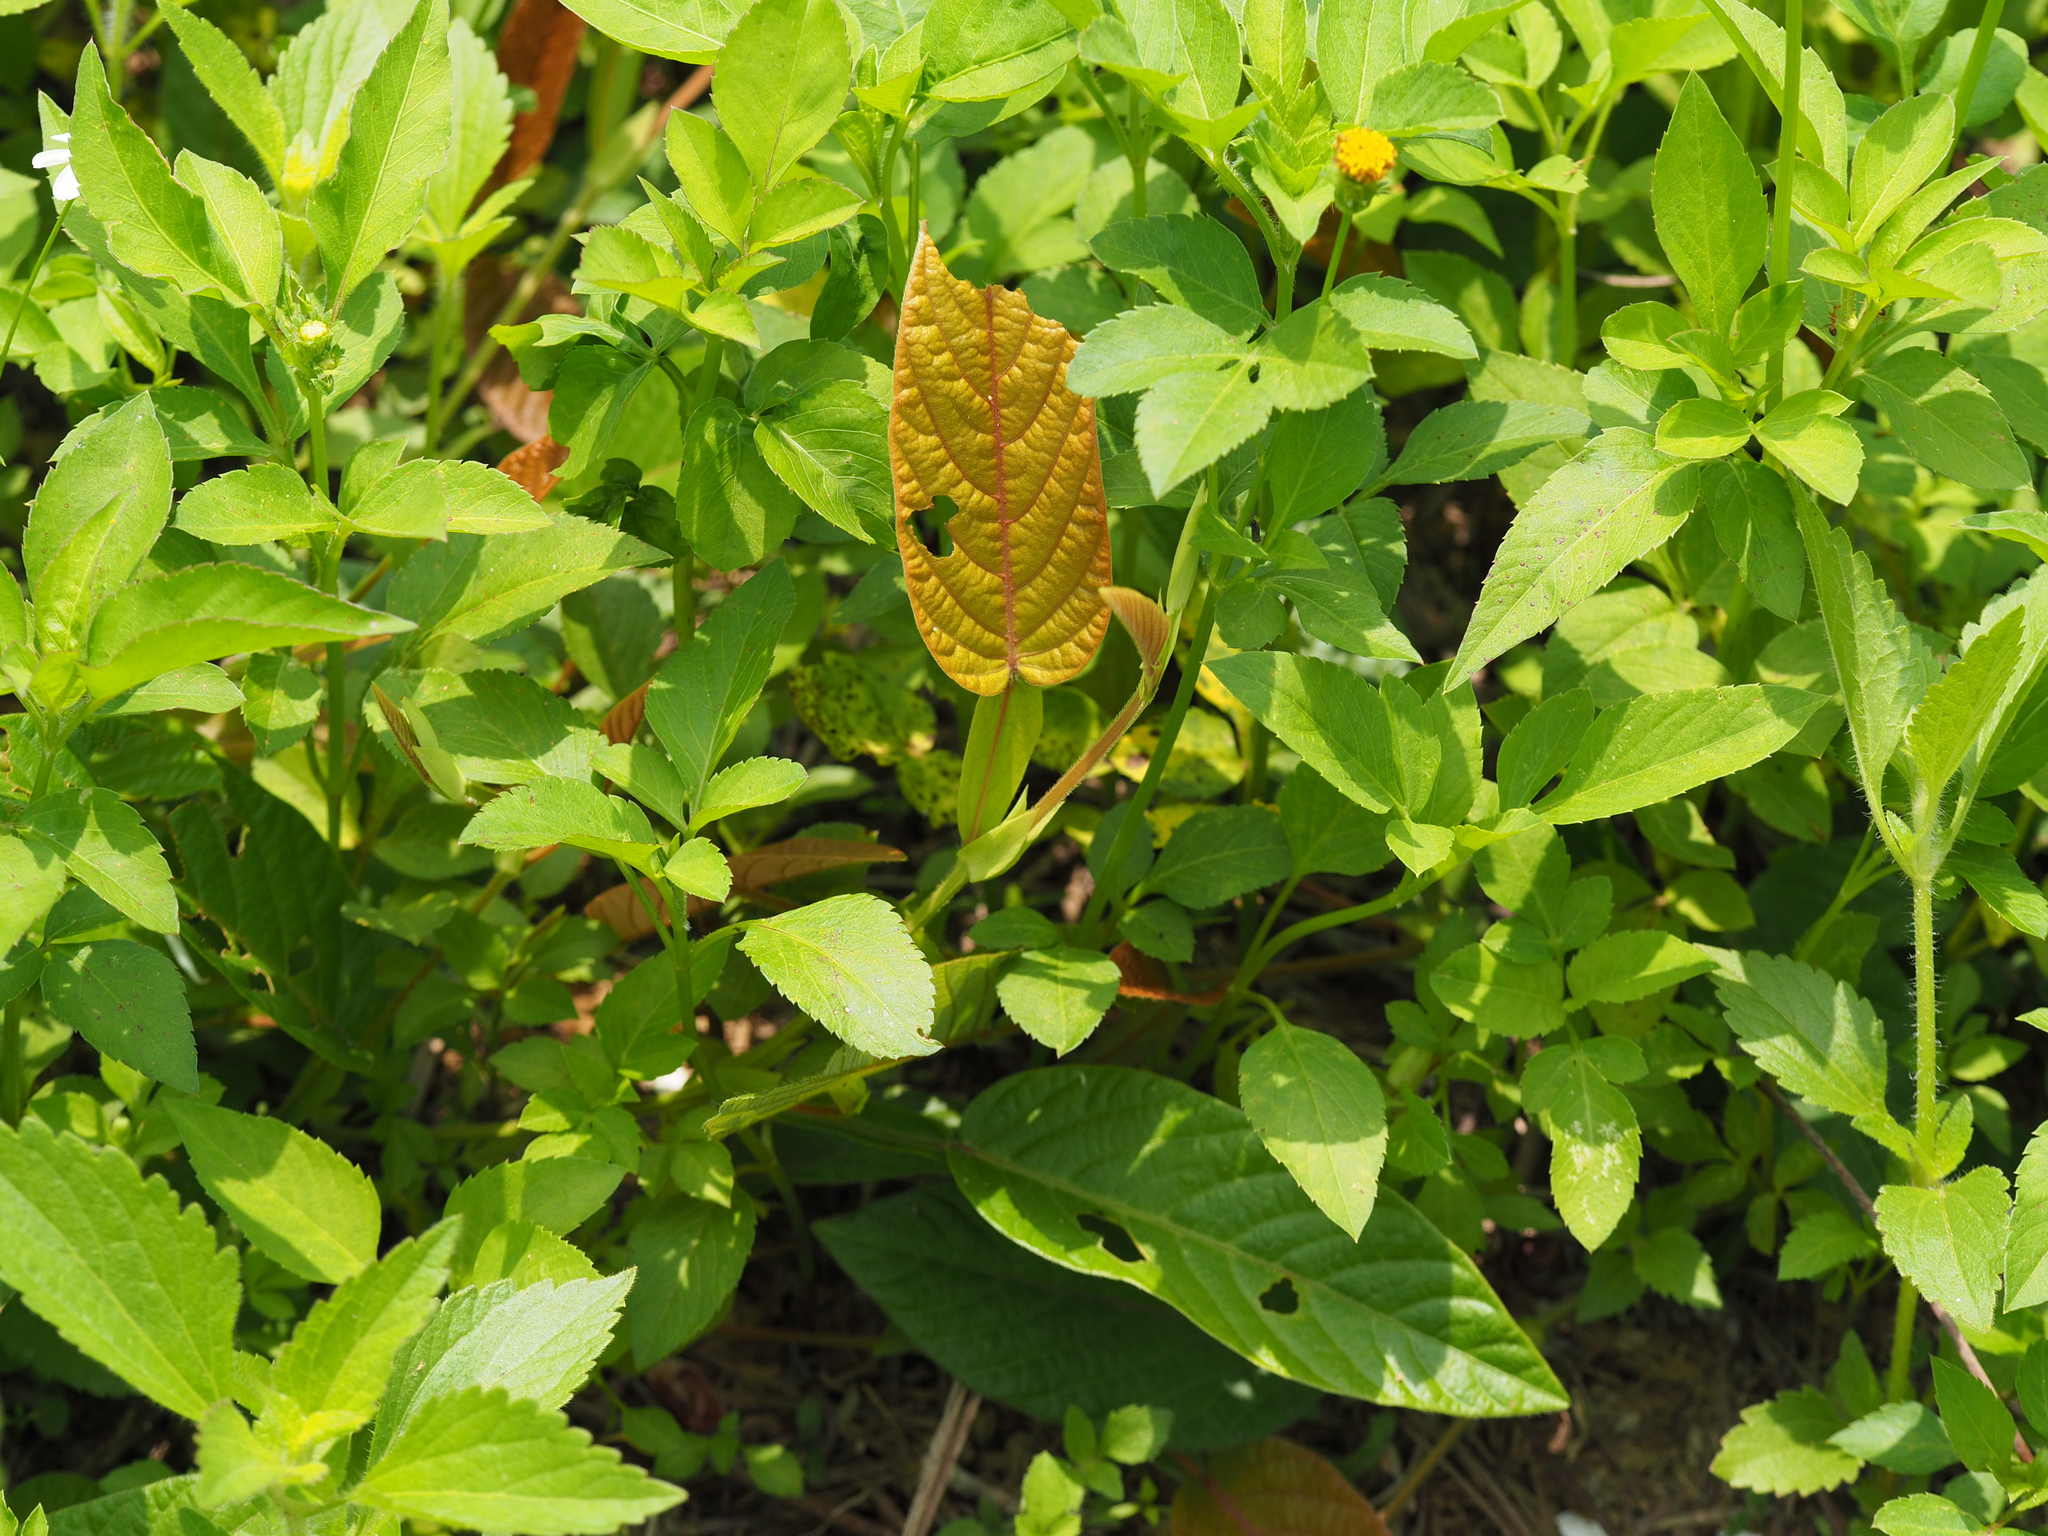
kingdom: Plantae
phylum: Tracheophyta
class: Magnoliopsida
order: Fabales
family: Fabaceae
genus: Tadehagi
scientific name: Tadehagi pseudotriquetrum
